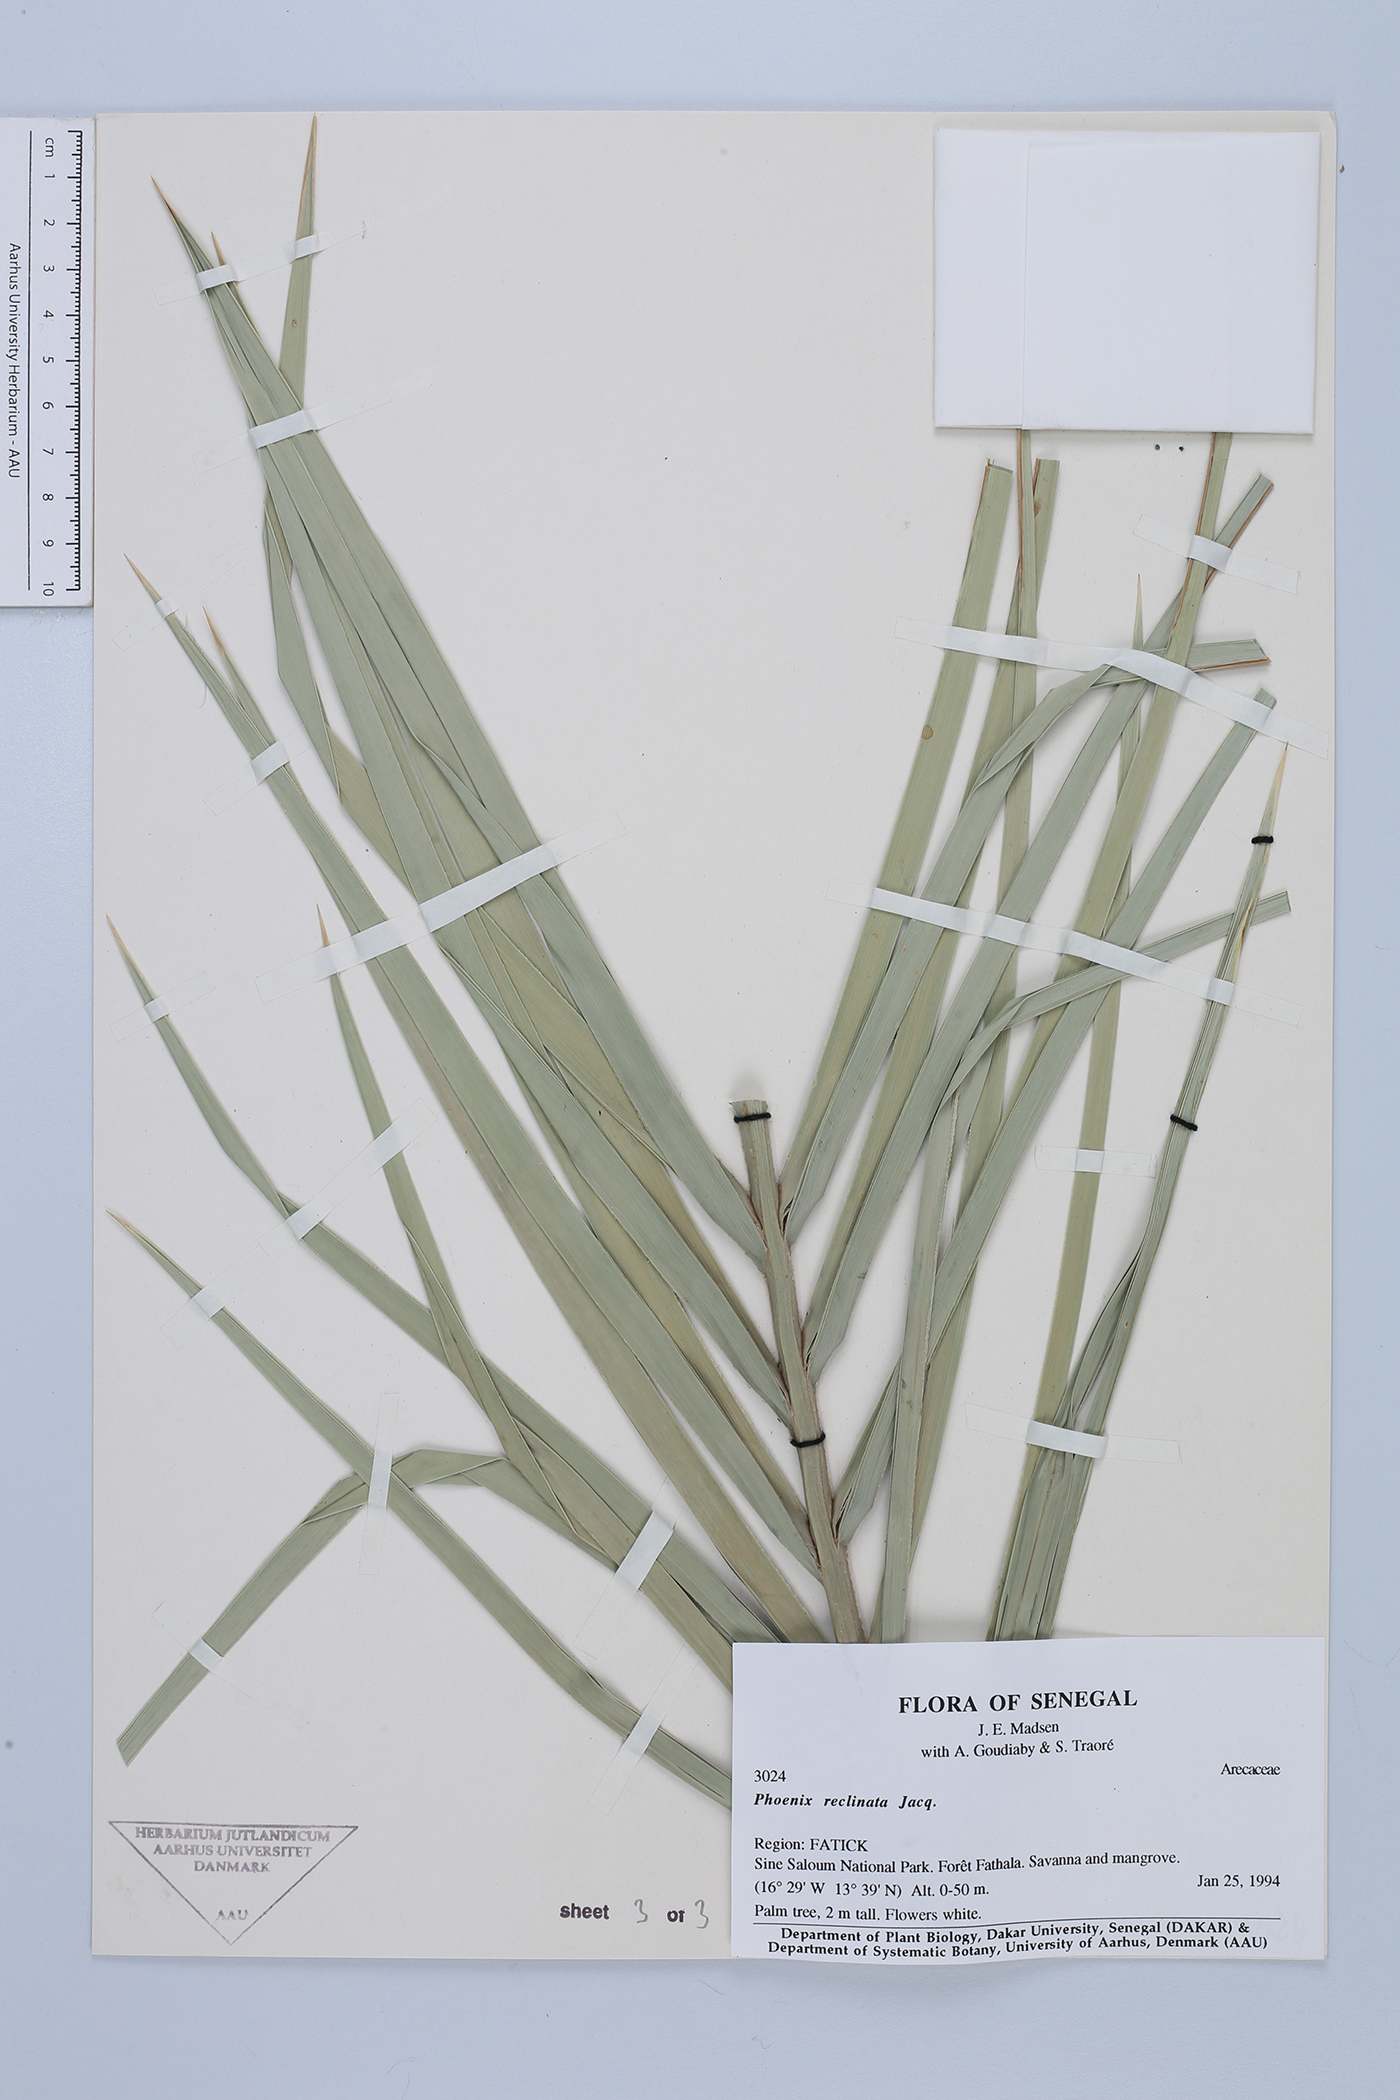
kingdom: Plantae
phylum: Tracheophyta
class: Liliopsida
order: Arecales
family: Arecaceae
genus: Phoenix
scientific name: Phoenix reclinata
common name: Senegal date palm
